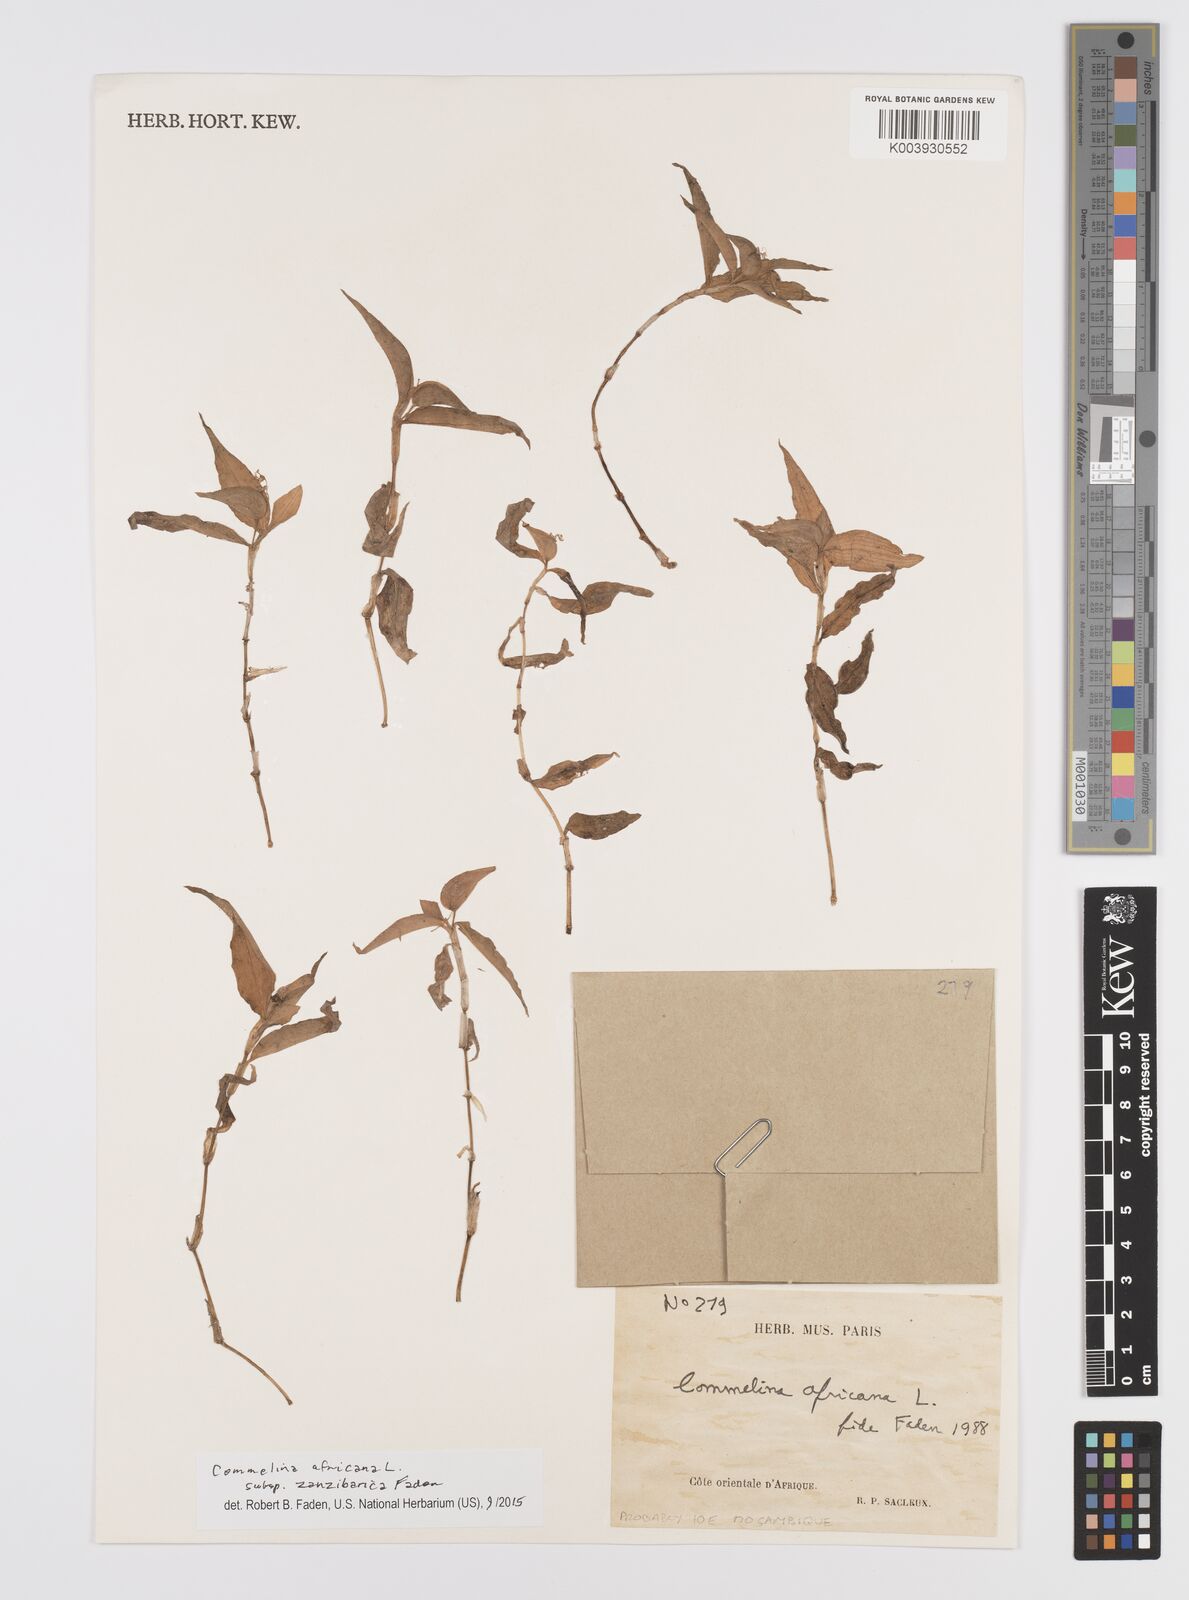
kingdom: Plantae
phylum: Tracheophyta
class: Liliopsida
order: Commelinales
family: Commelinaceae
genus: Commelina
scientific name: Commelina africana
